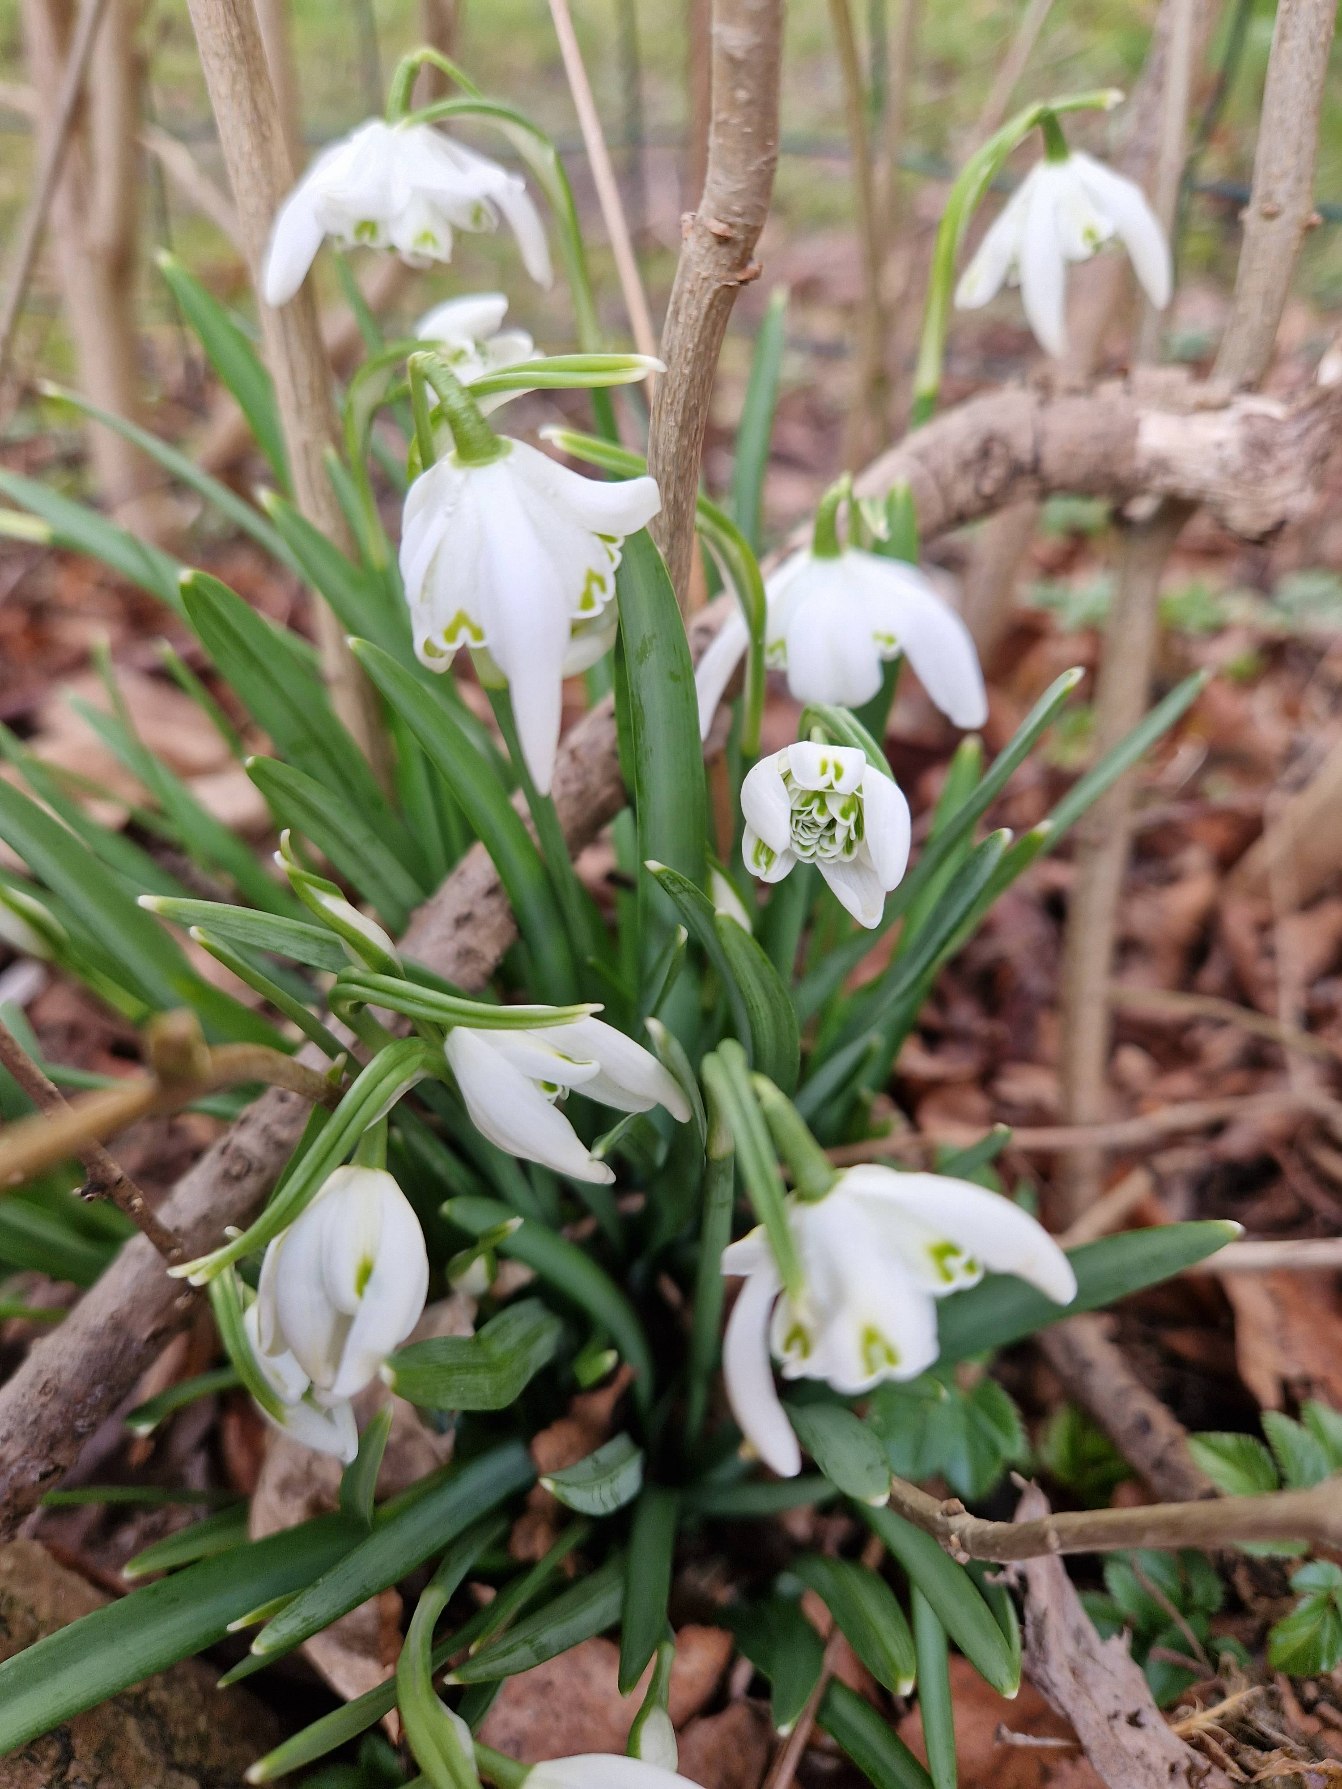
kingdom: Plantae
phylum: Tracheophyta
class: Liliopsida
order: Asparagales
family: Amaryllidaceae
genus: Galanthus
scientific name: Galanthus nivalis
